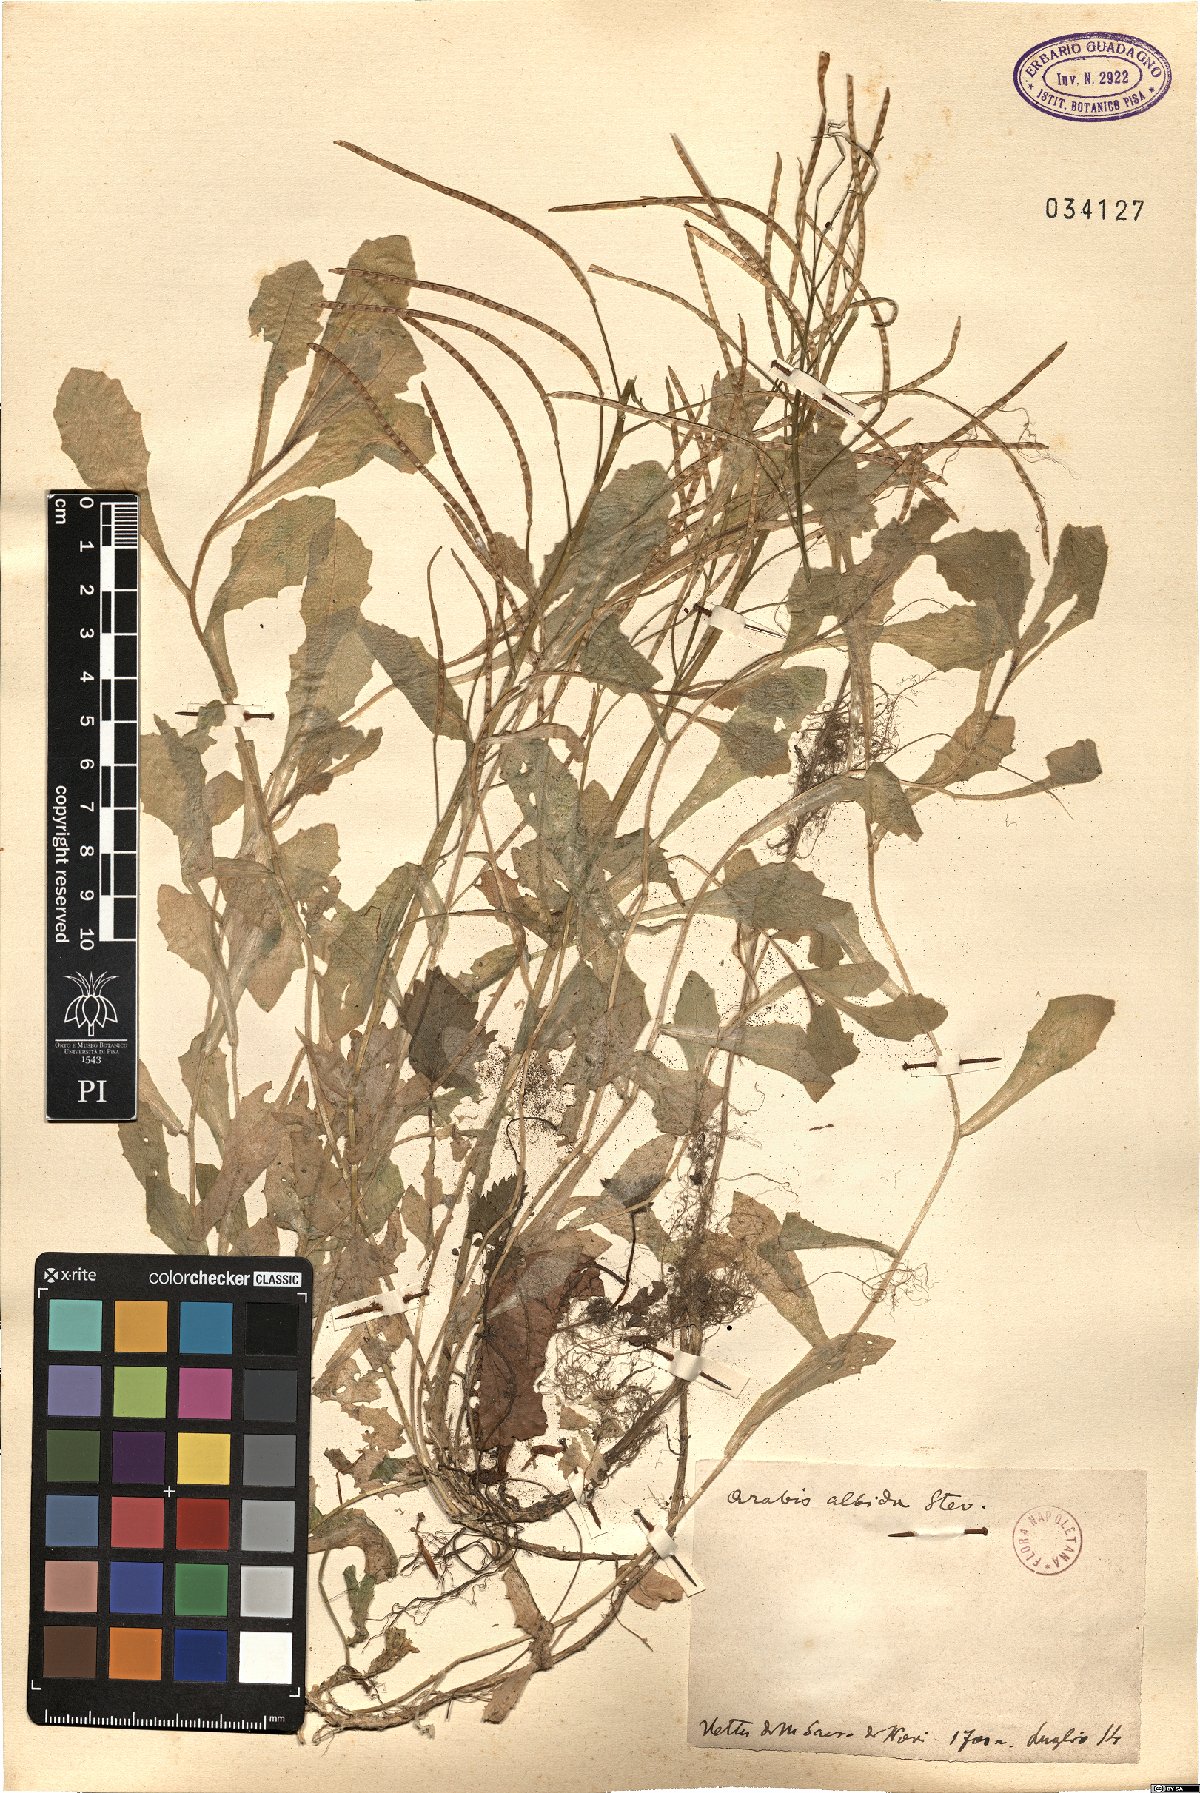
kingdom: Plantae
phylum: Tracheophyta
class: Magnoliopsida
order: Brassicales
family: Brassicaceae
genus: Arabis
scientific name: Arabis caucasica
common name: Gray rockcress
